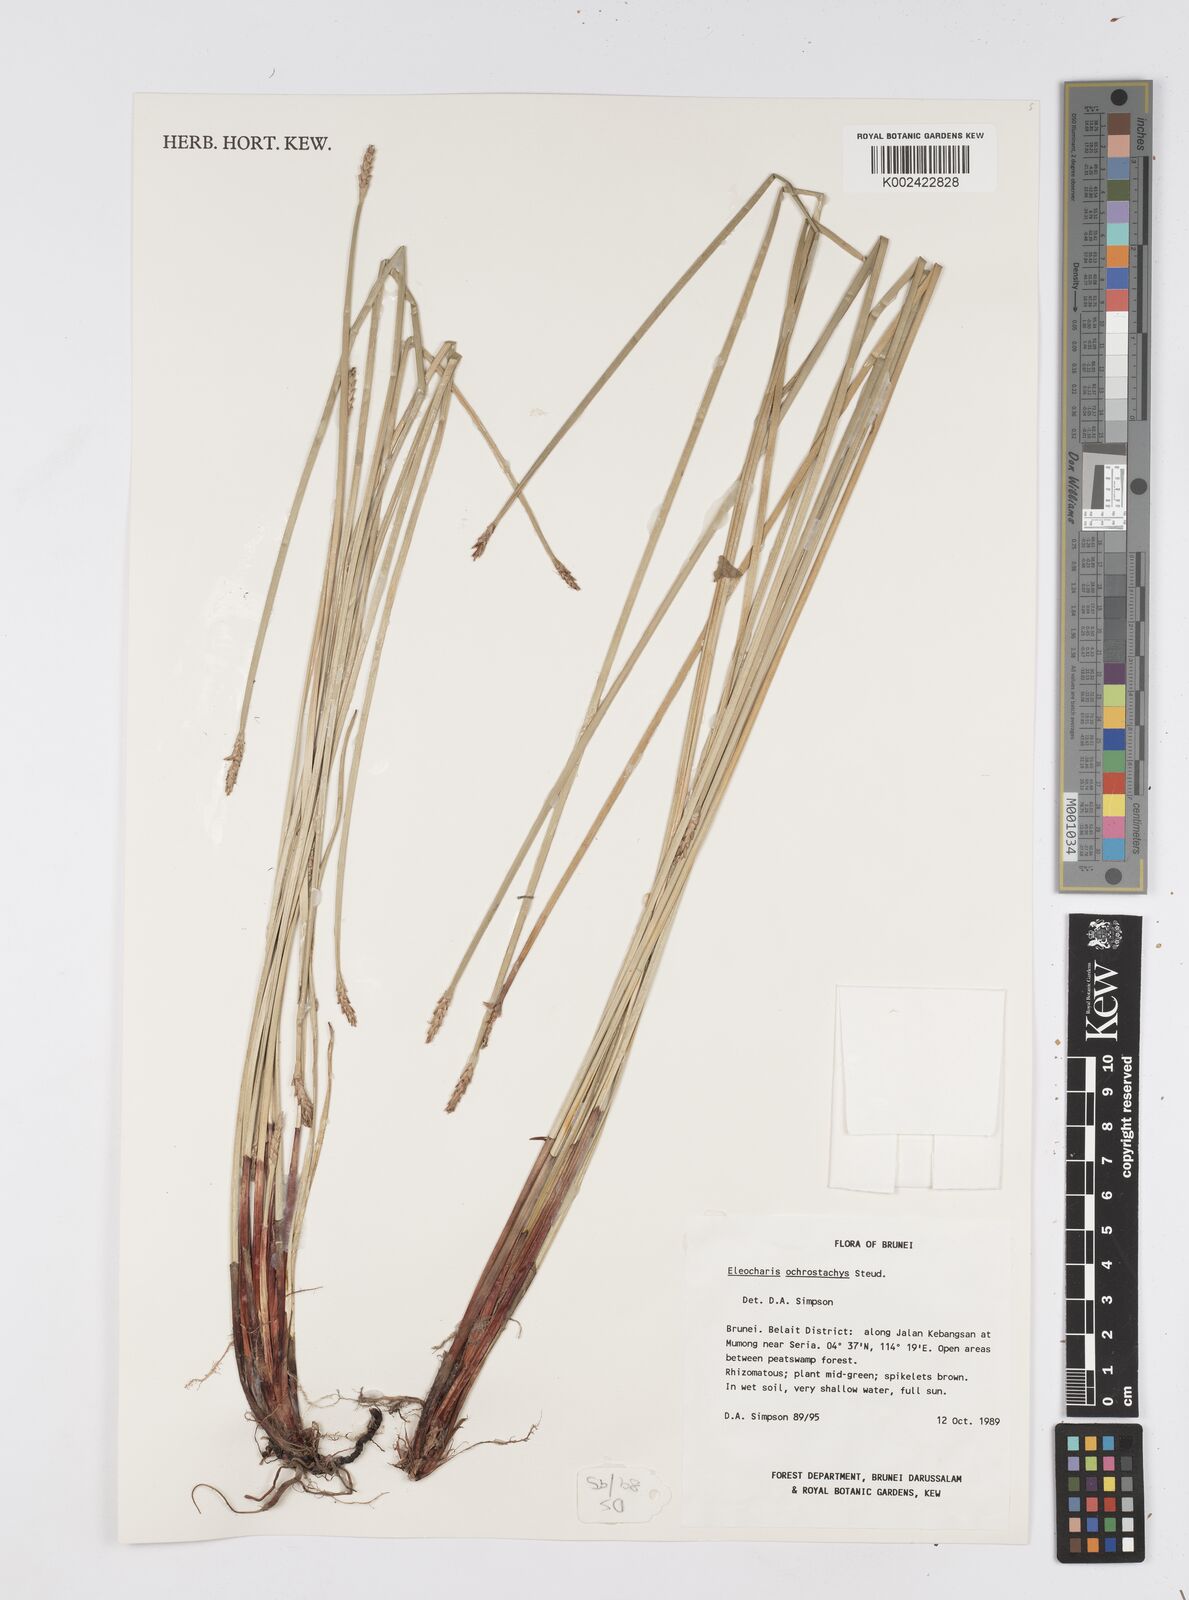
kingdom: Plantae
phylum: Tracheophyta
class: Liliopsida
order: Poales
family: Cyperaceae
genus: Eleocharis
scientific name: Eleocharis ochrostachys
